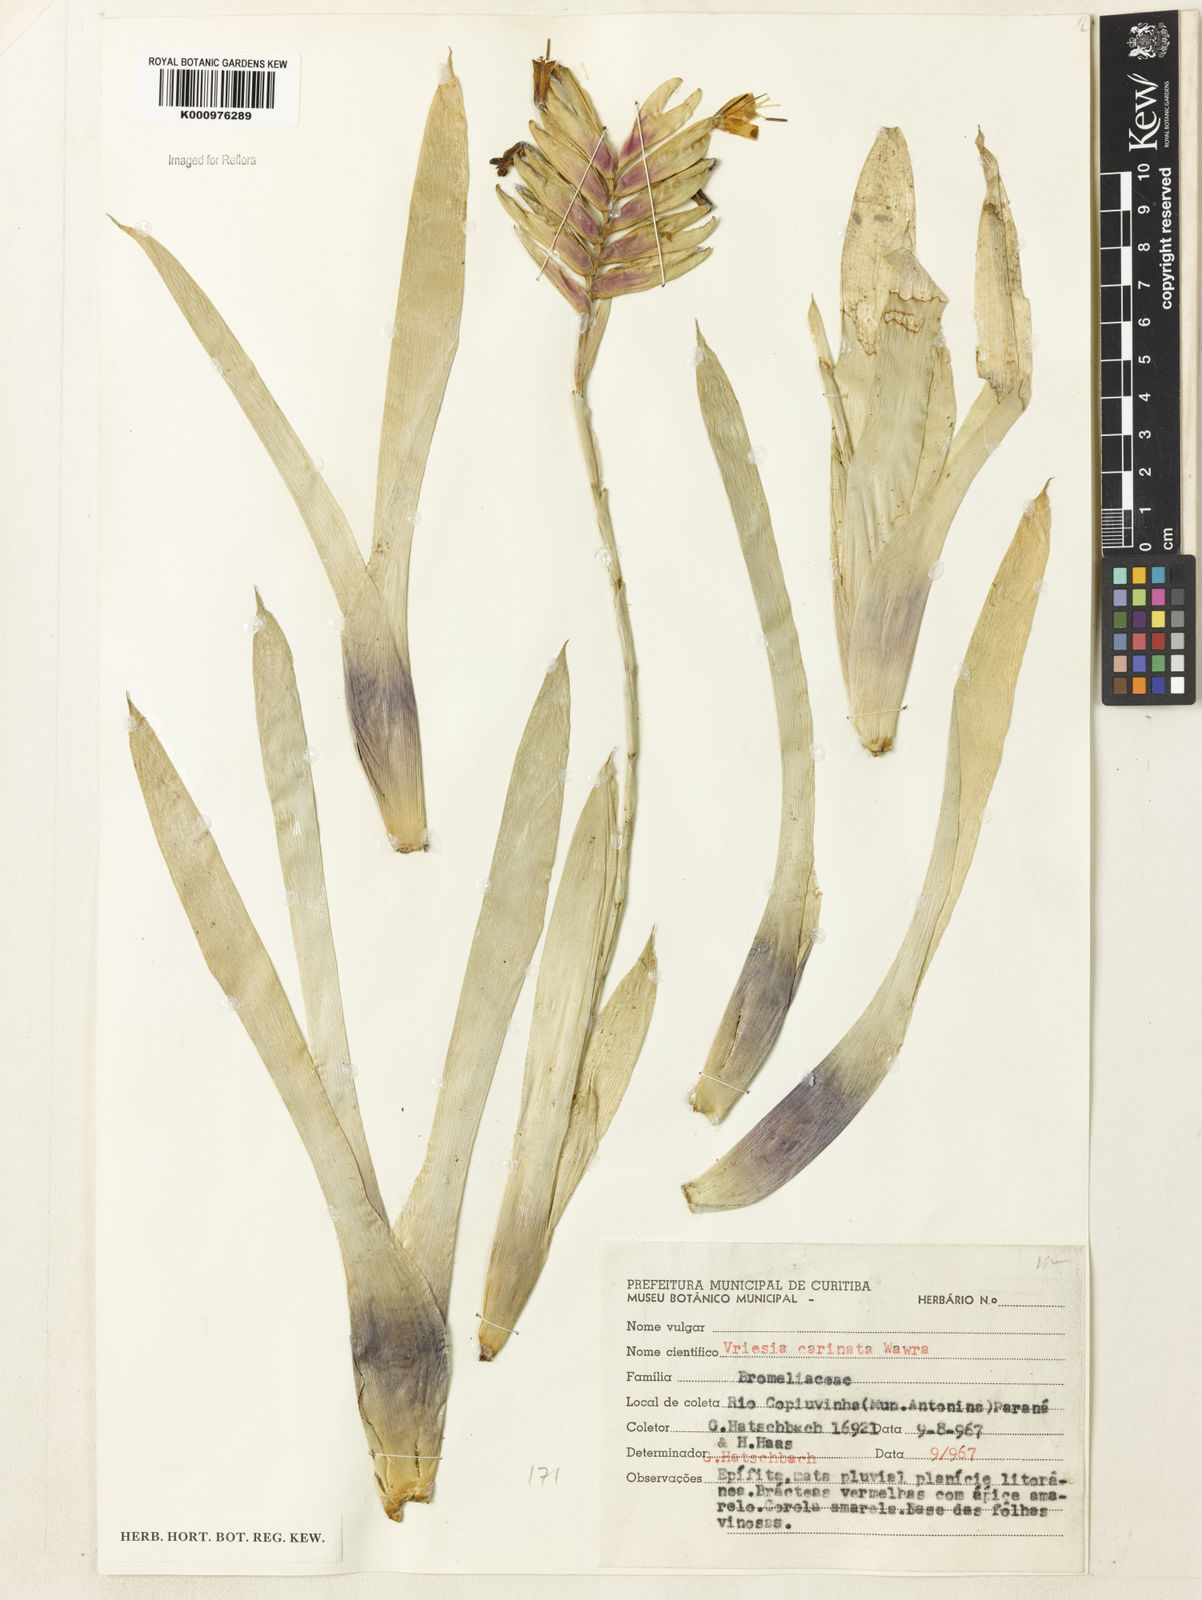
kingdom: Plantae
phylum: Tracheophyta
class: Liliopsida
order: Poales
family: Bromeliaceae
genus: Vriesea
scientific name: Vriesea carinata
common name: Lobster-claws
